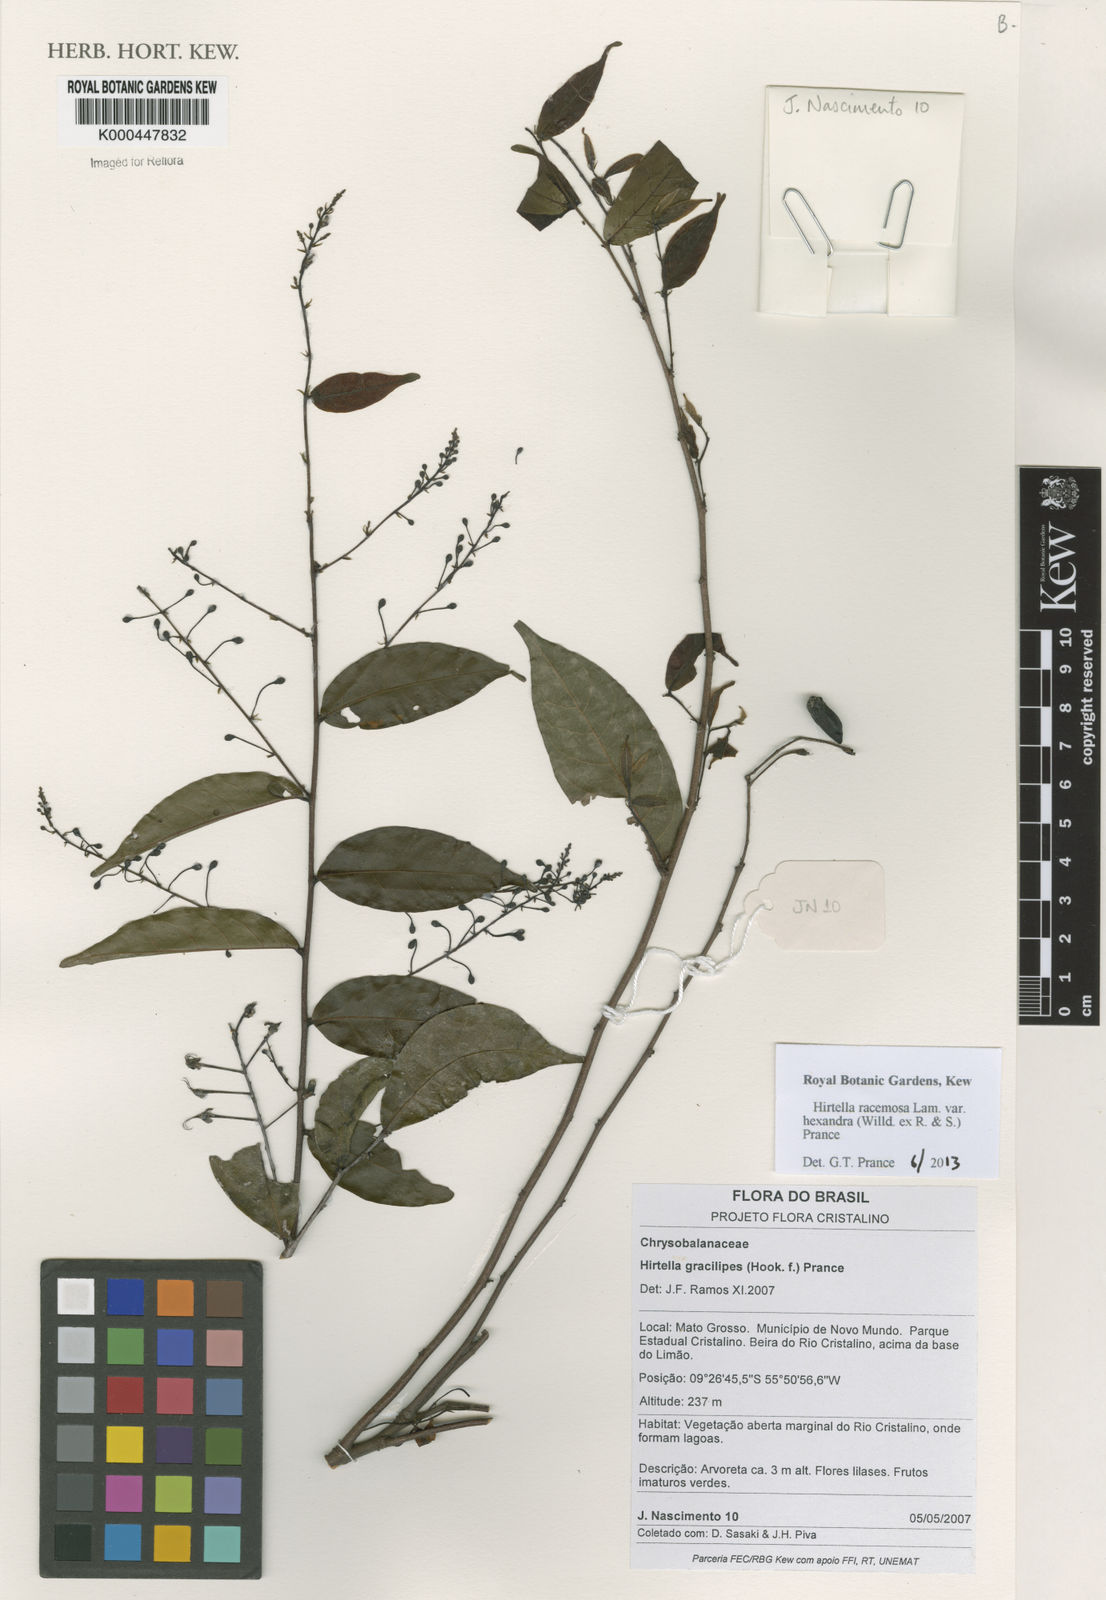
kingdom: Plantae
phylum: Tracheophyta
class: Magnoliopsida
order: Malpighiales
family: Chrysobalanaceae
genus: Hirtella
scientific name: Hirtella gracilipes
